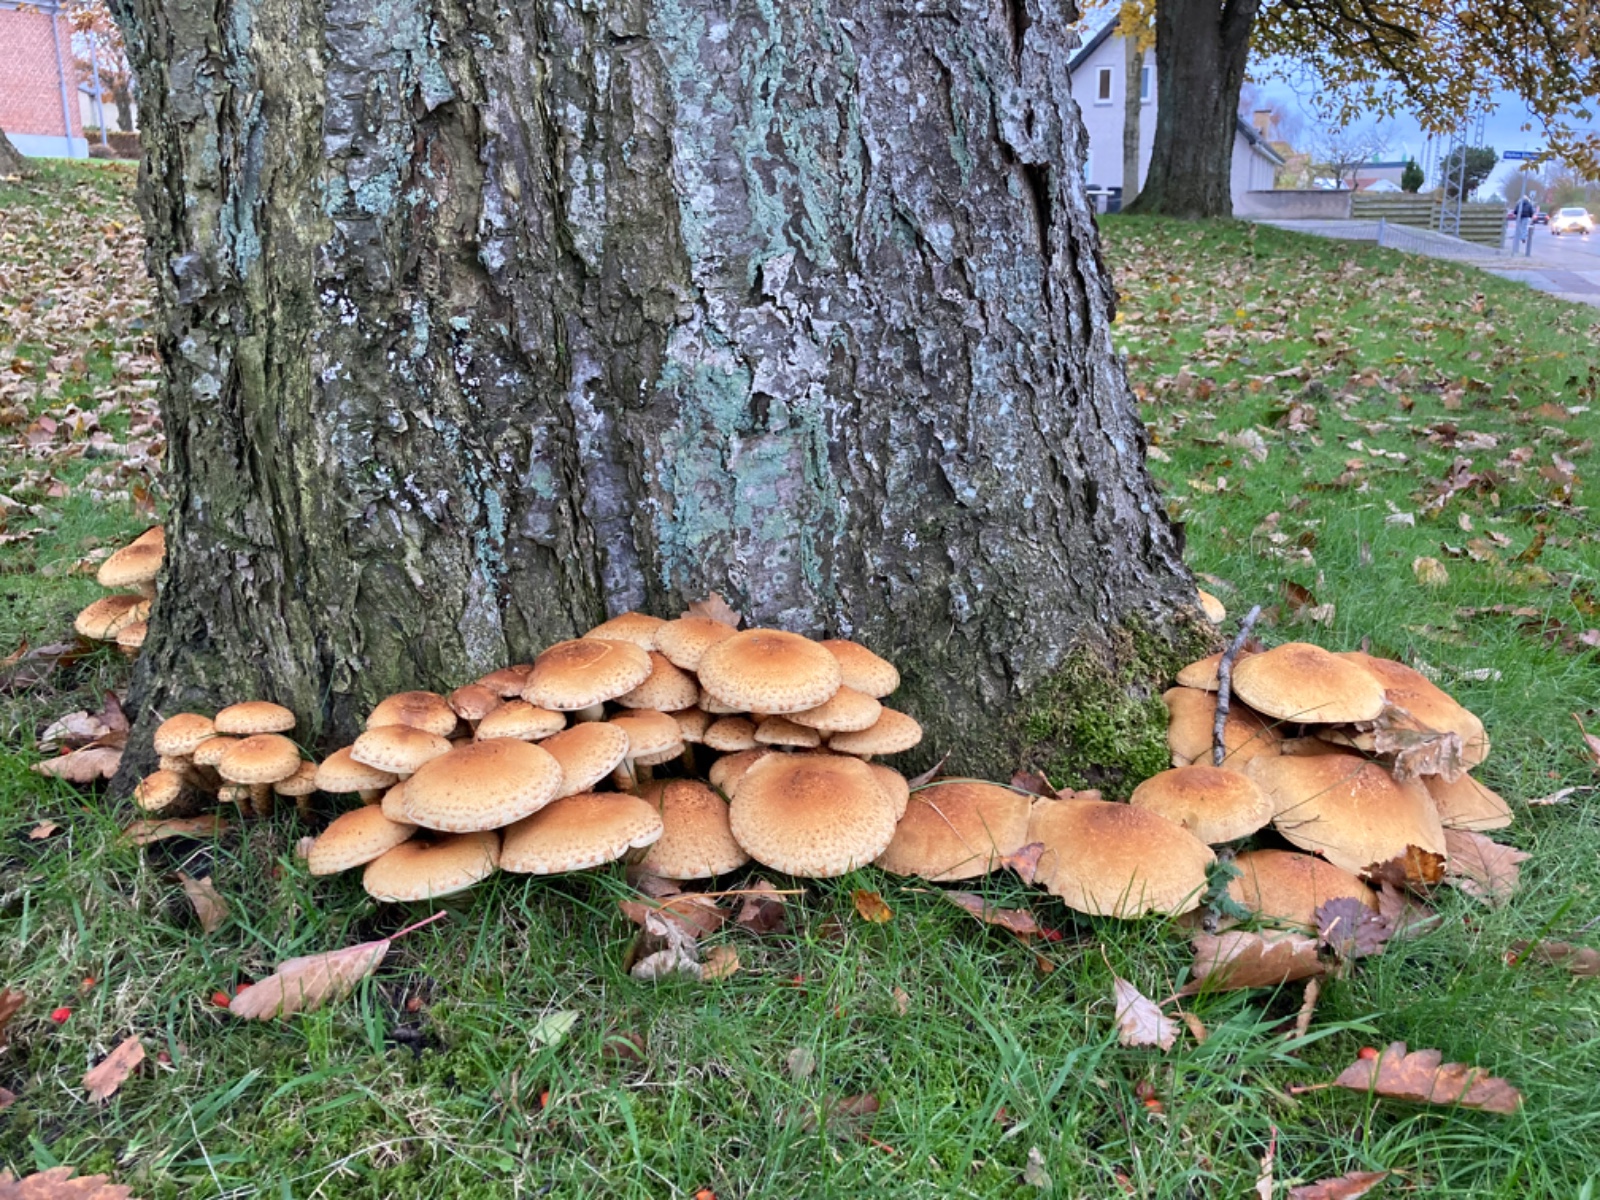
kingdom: Fungi
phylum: Basidiomycota
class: Agaricomycetes
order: Agaricales
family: Strophariaceae
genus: Pholiota
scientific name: Pholiota squarrosa
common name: krumskællet skælhat
